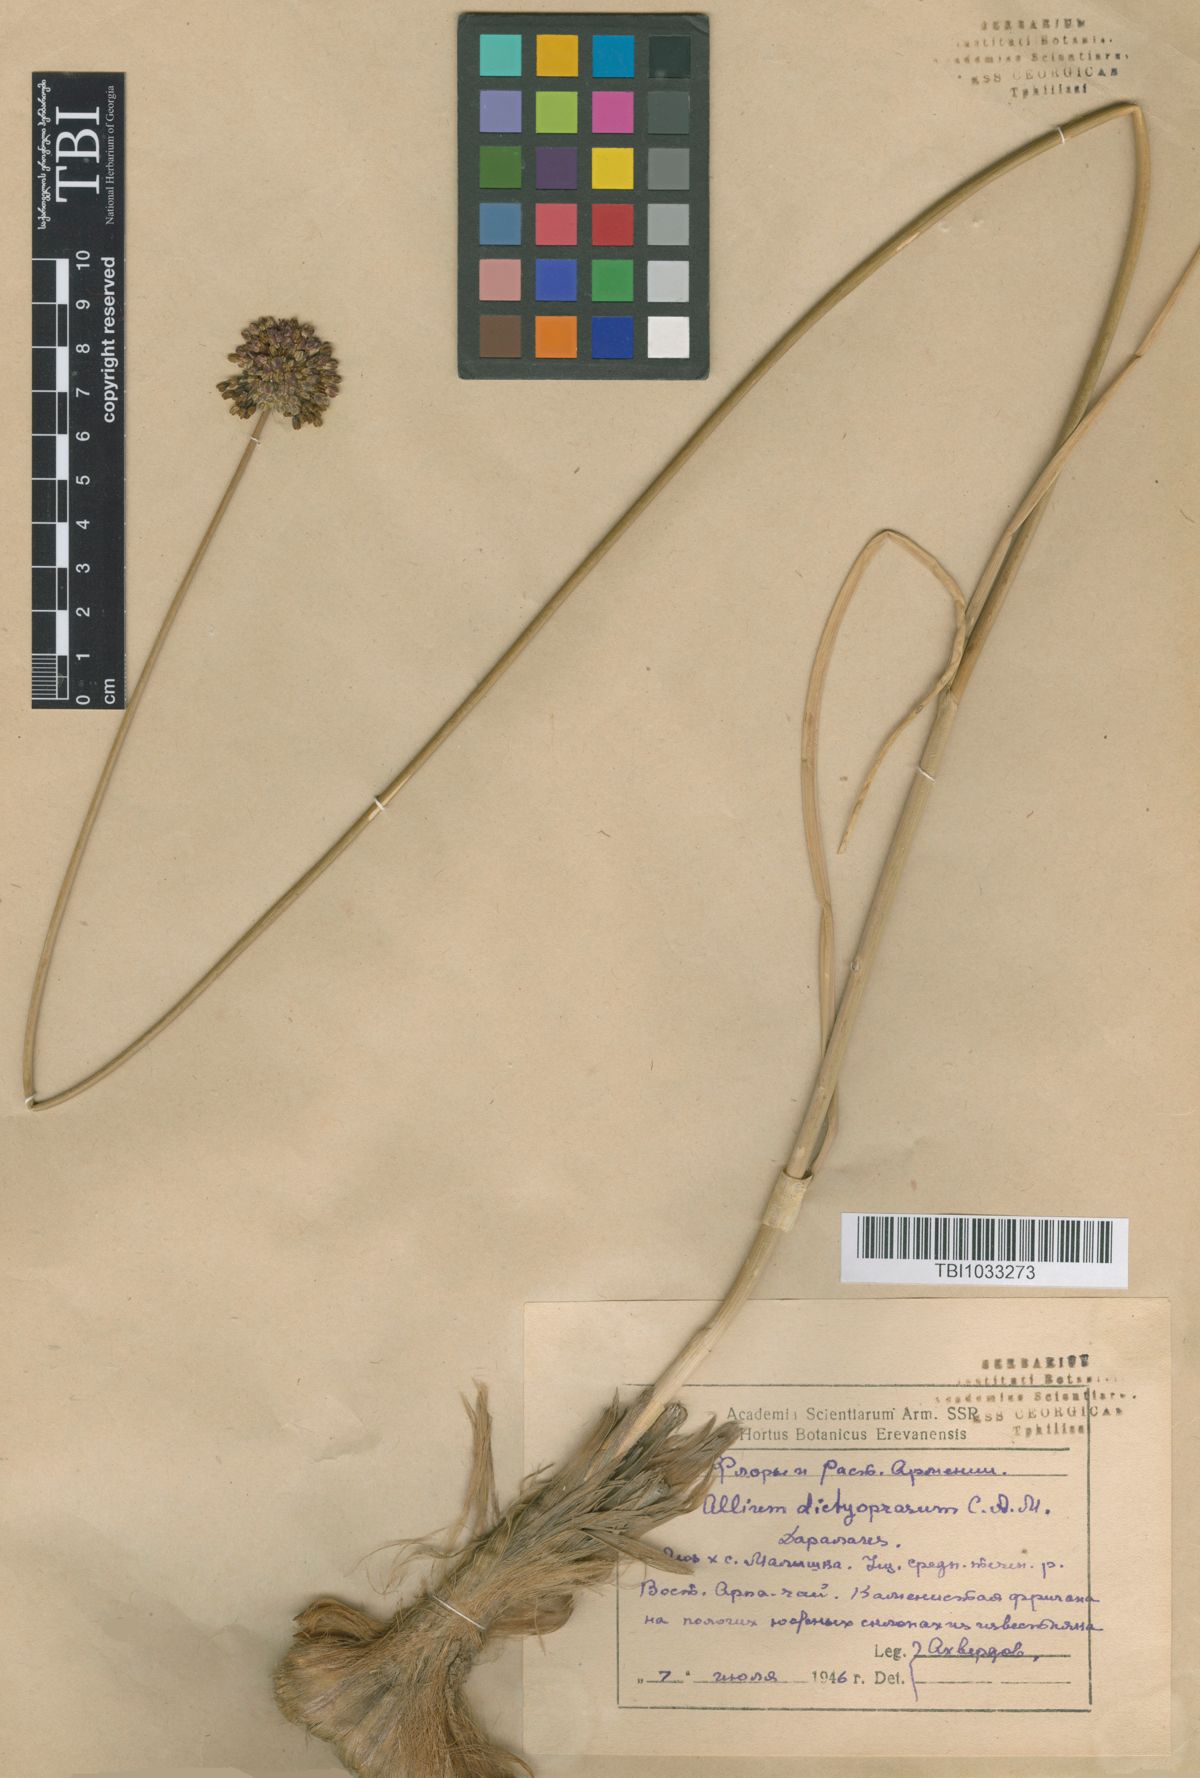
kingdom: Plantae
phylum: Tracheophyta
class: Liliopsida
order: Asparagales
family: Amaryllidaceae
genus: Allium
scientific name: Allium dictyoprasum
